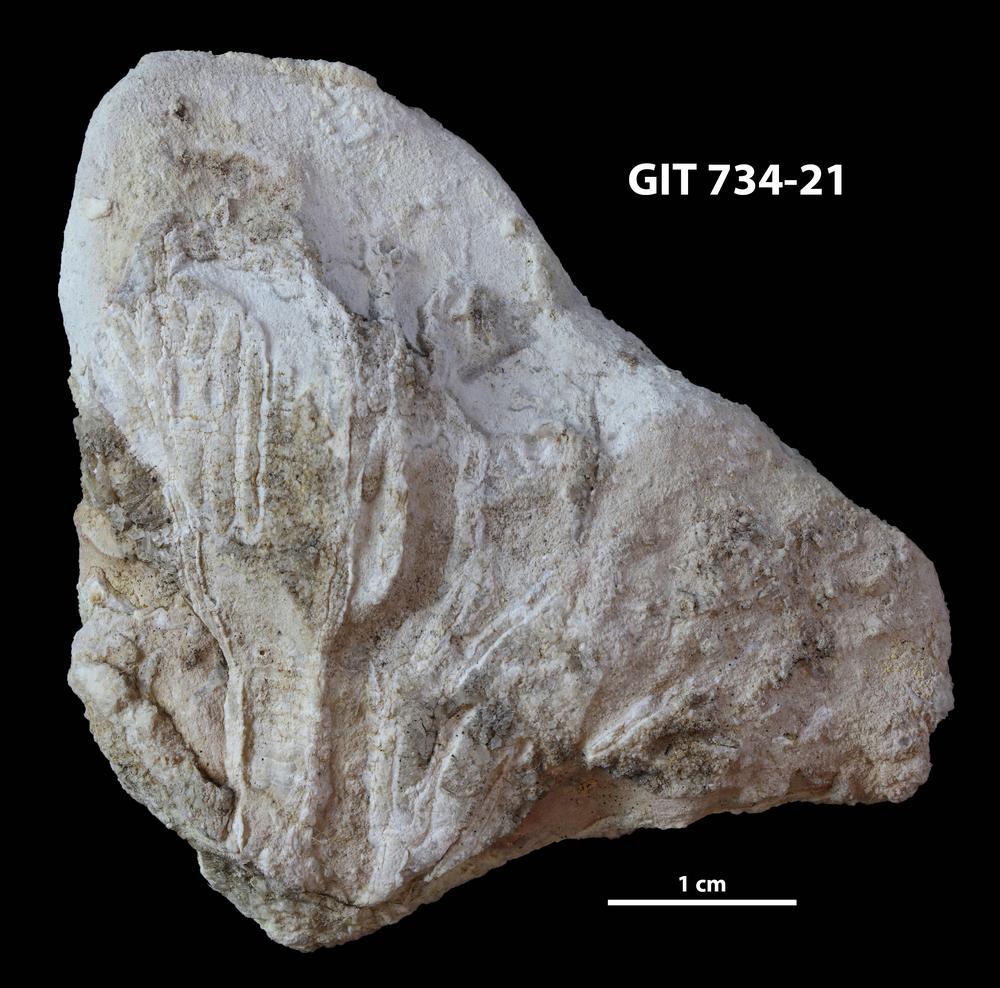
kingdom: Animalia
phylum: Cnidaria
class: Anthozoa
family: Cateniporidae
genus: Catenipora
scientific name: Catenipora
